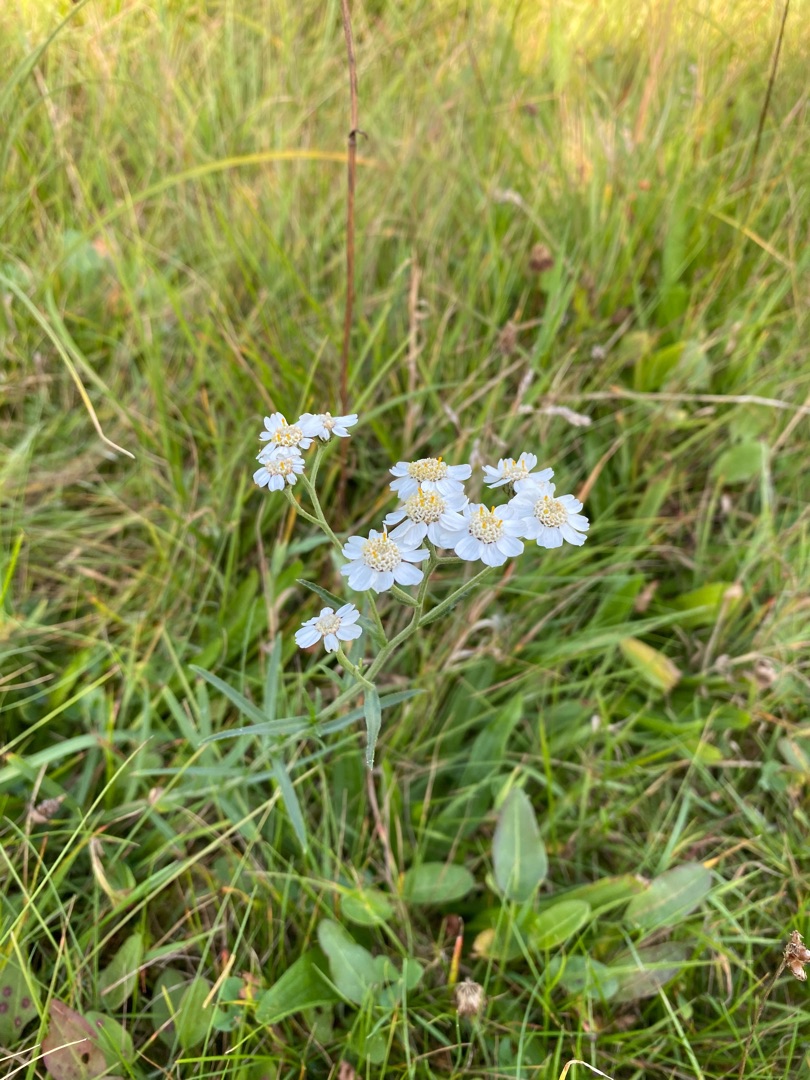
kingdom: Plantae
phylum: Tracheophyta
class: Magnoliopsida
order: Asterales
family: Asteraceae
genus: Achillea
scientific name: Achillea ptarmica
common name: Nyse-røllike
